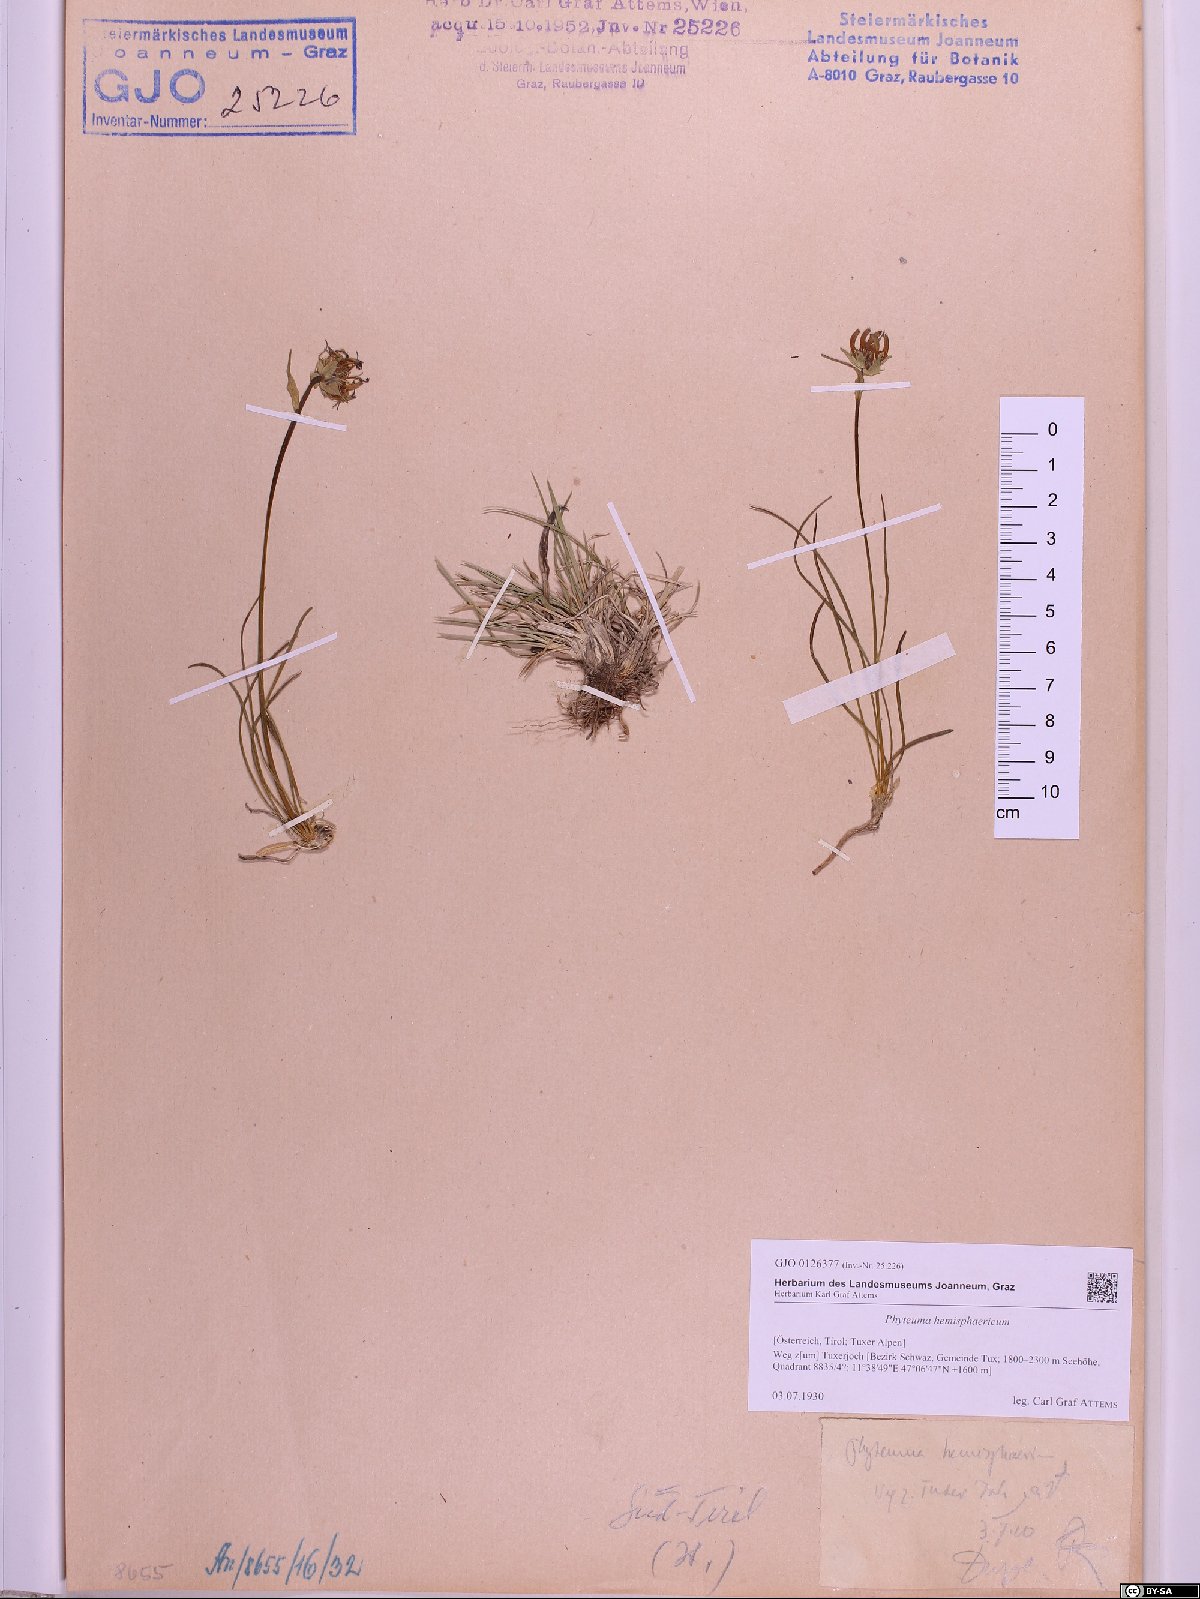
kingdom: Plantae
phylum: Tracheophyta
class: Magnoliopsida
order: Asterales
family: Campanulaceae
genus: Phyteuma
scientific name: Phyteuma hemisphaericum
